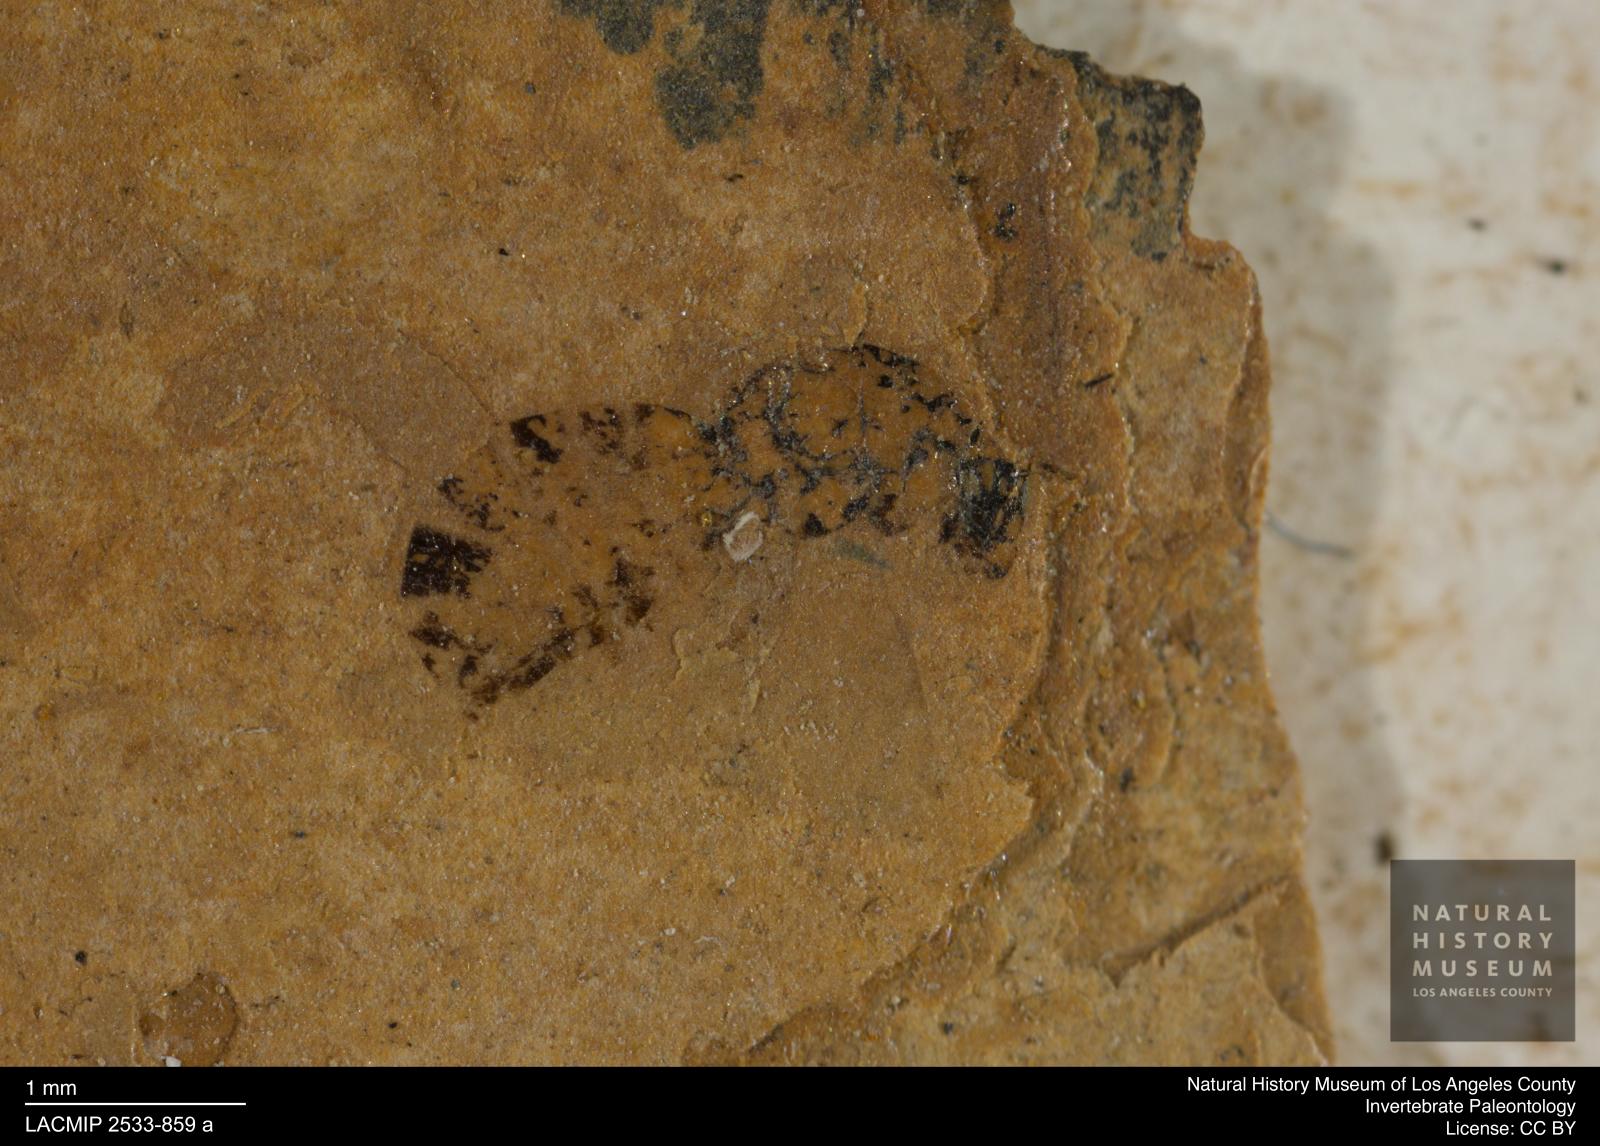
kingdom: Animalia
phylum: Arthropoda
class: Insecta
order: Hymenoptera
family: Pteromalidae
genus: Pteromalus
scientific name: Pteromalus rottensis
